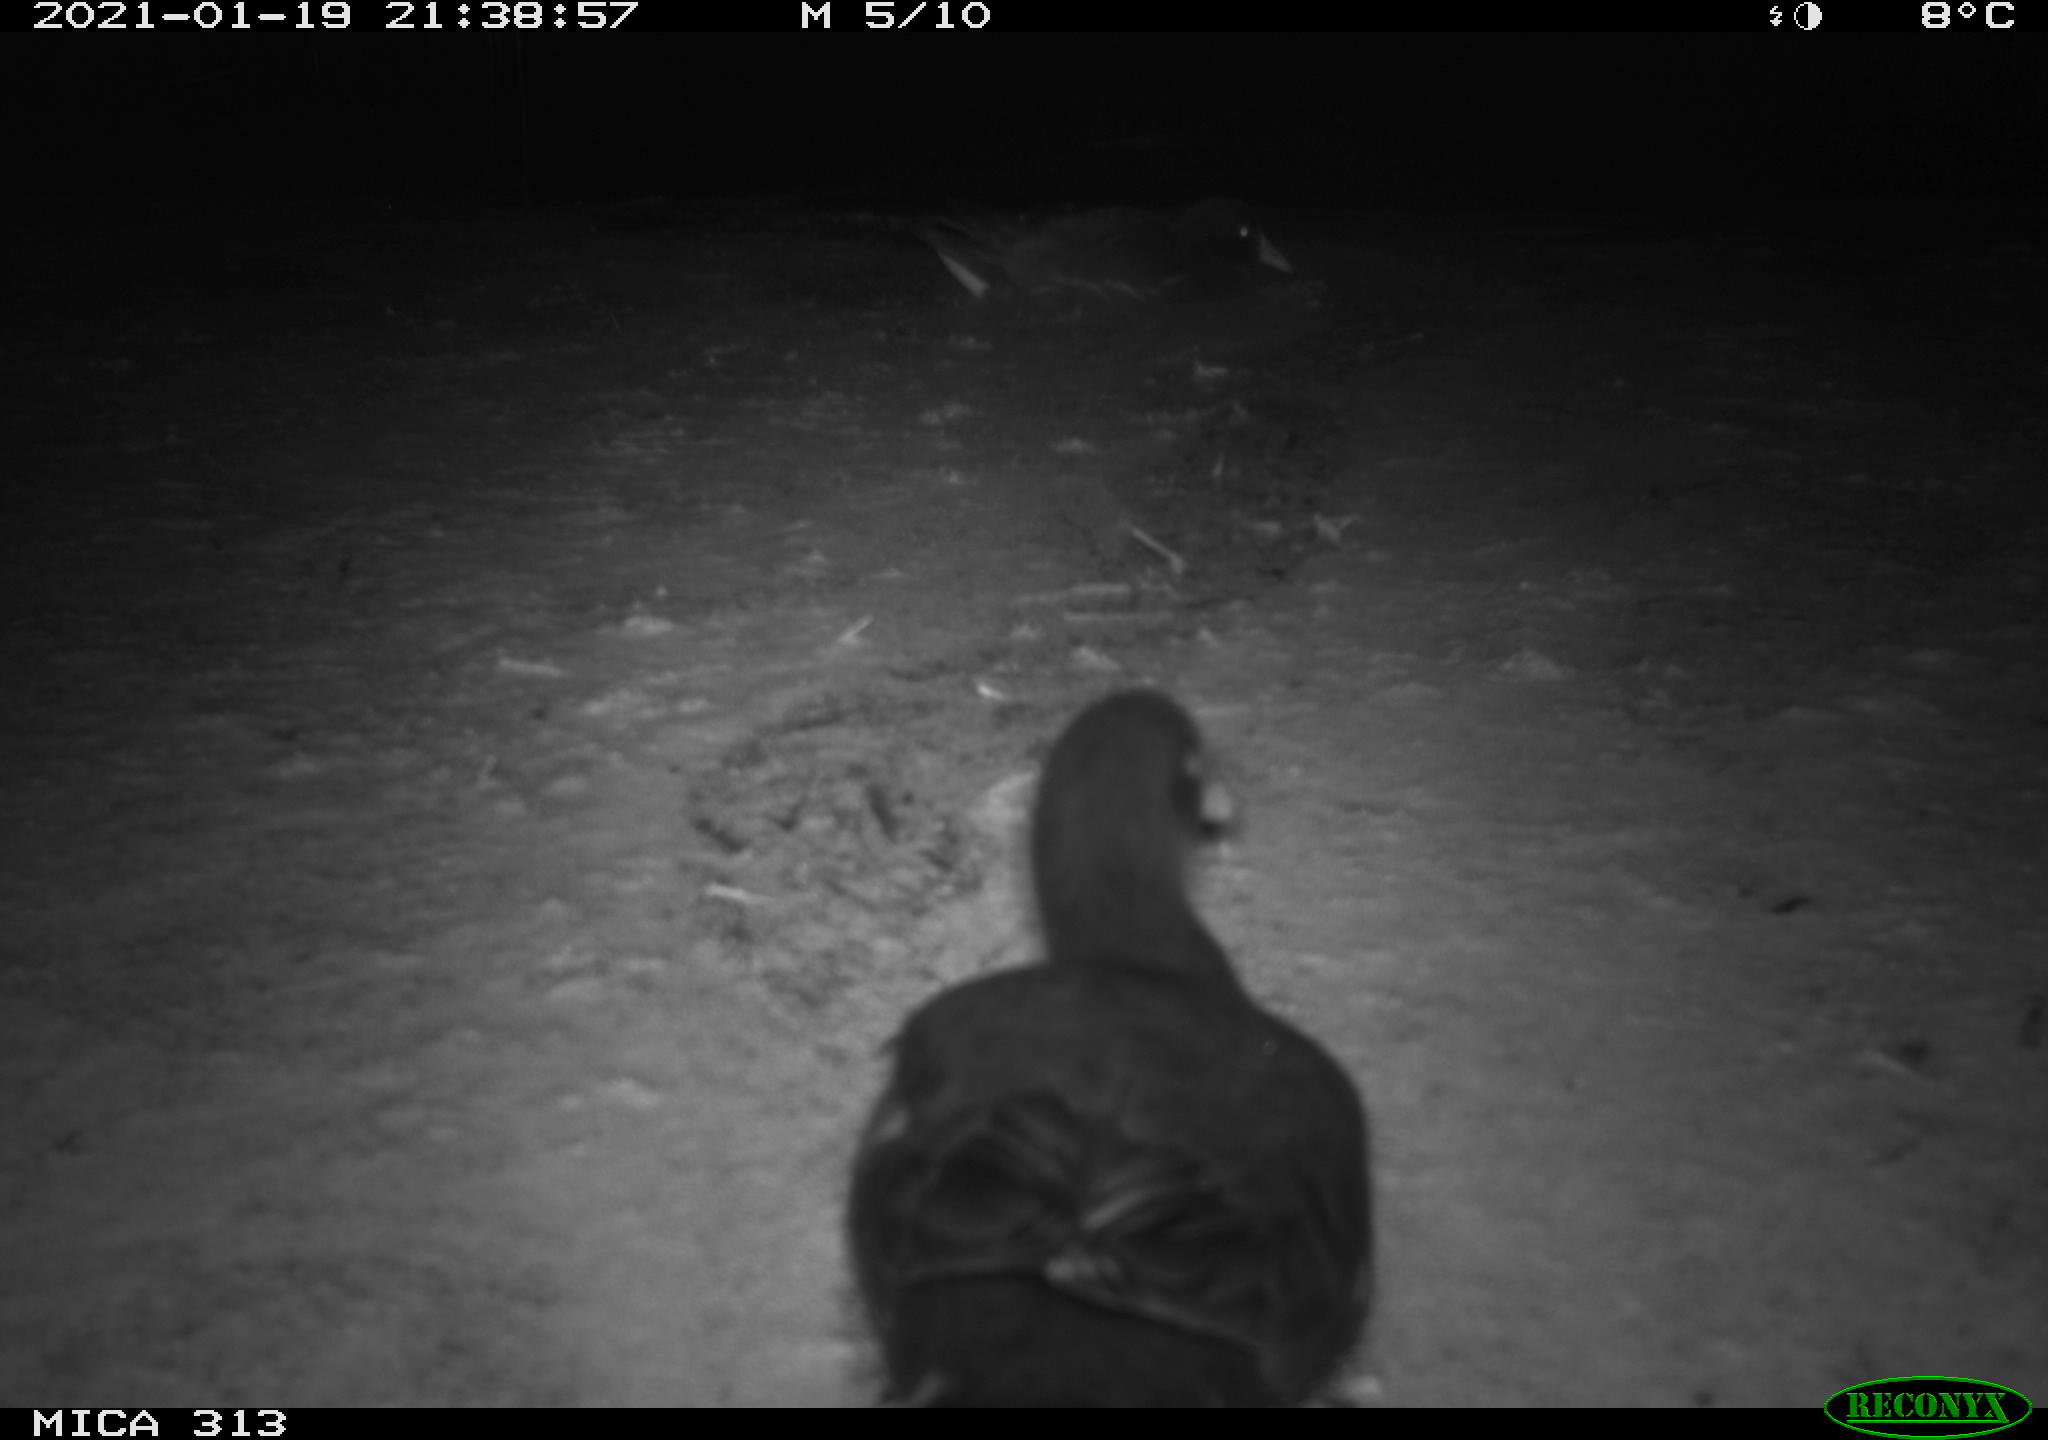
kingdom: Animalia
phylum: Chordata
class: Aves
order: Gruiformes
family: Rallidae
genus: Gallinula
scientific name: Gallinula chloropus
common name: Common moorhen
